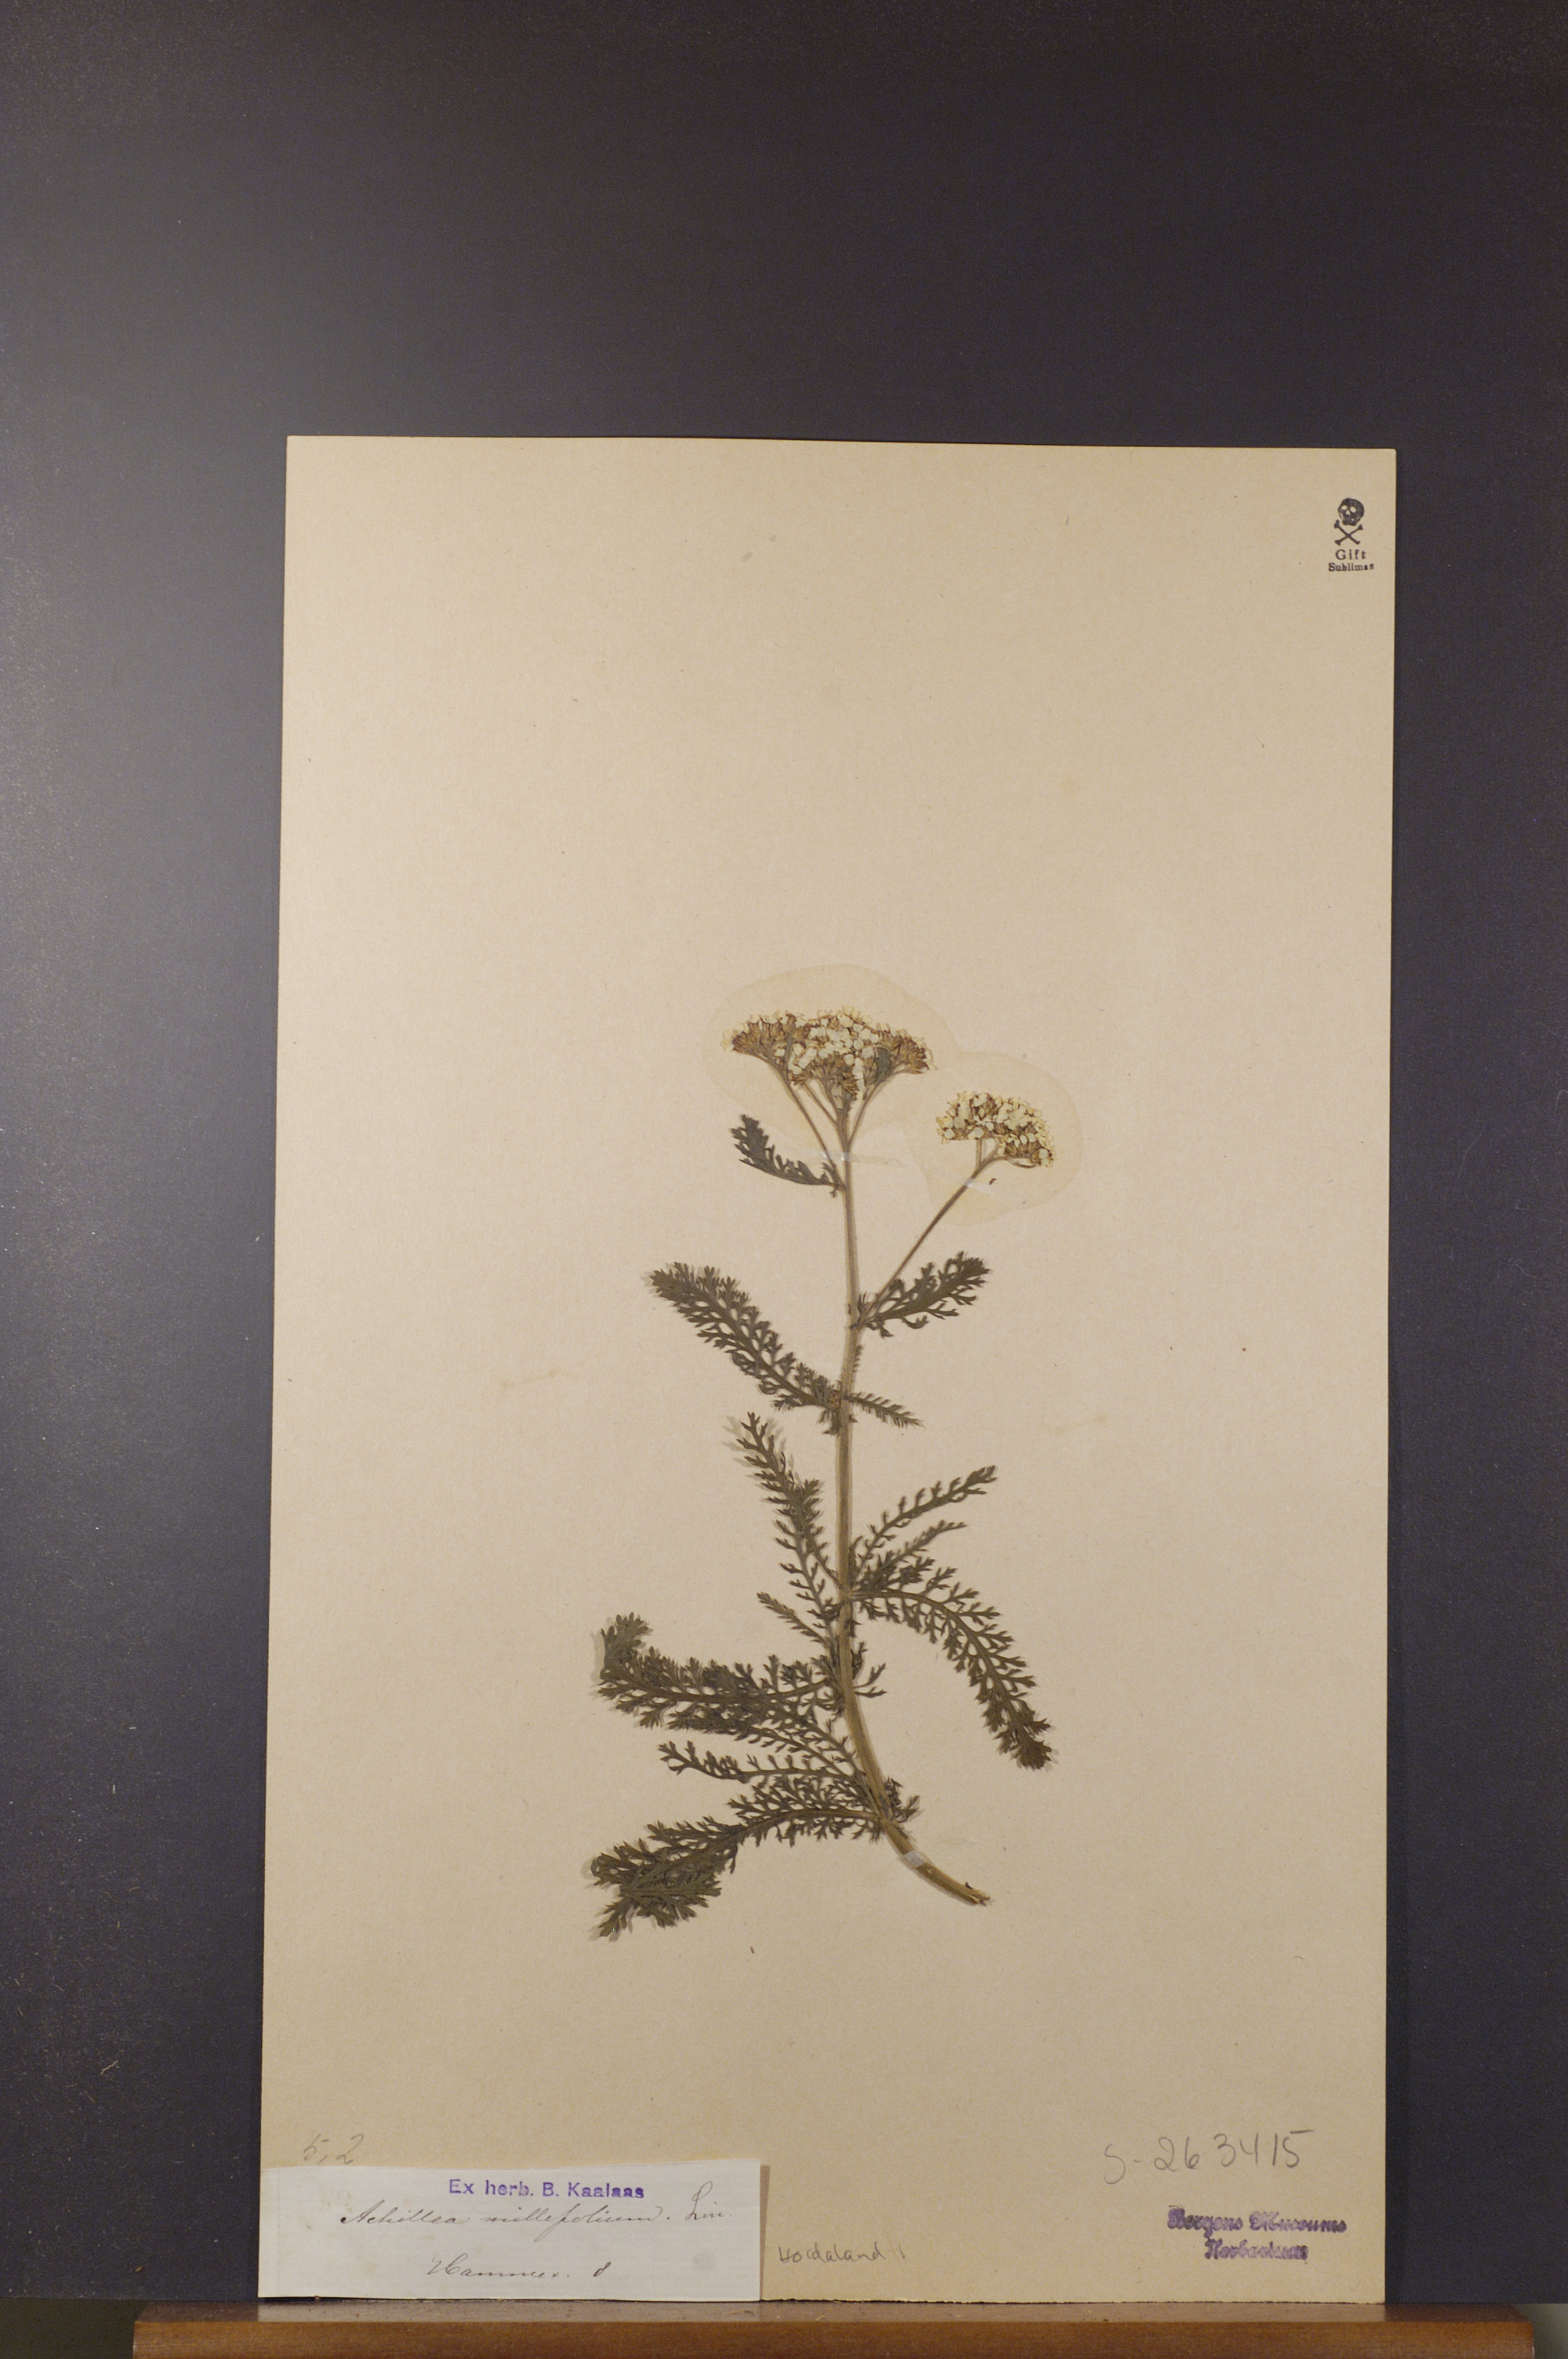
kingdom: Plantae
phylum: Tracheophyta
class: Magnoliopsida
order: Asterales
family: Asteraceae
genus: Achillea
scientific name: Achillea millefolium
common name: Yarrow
